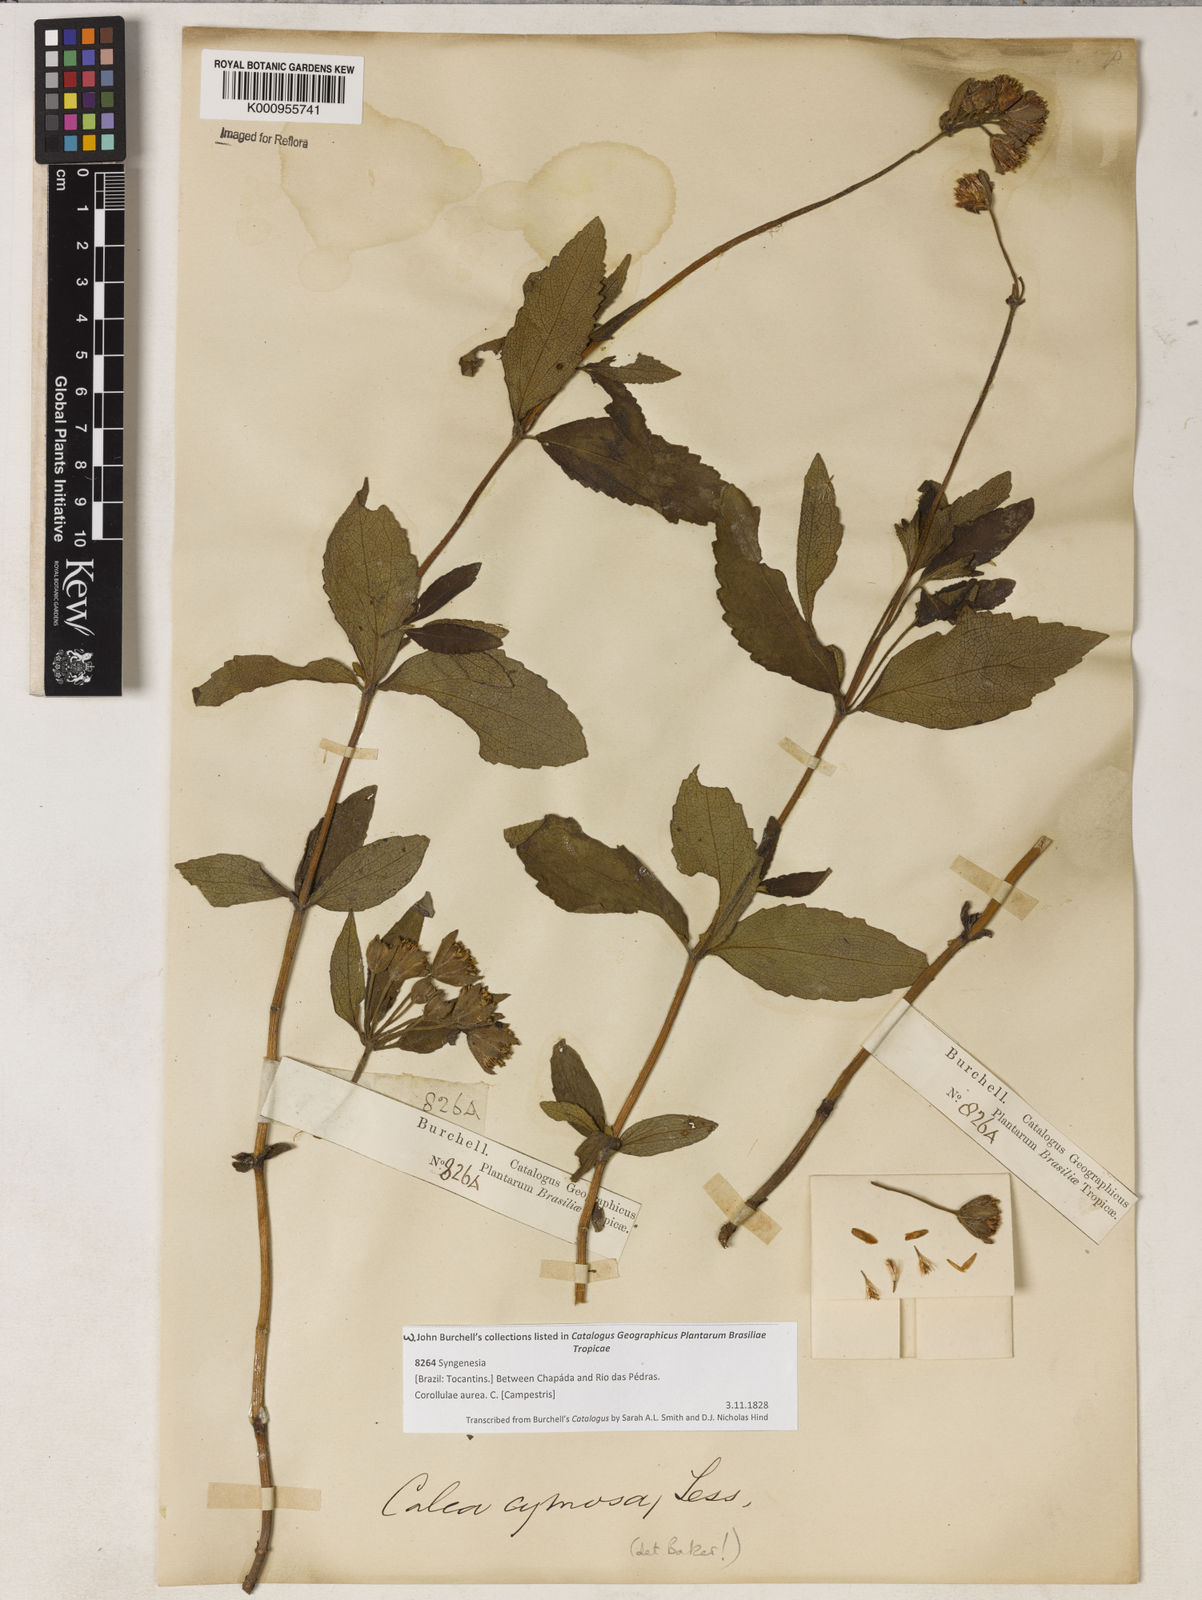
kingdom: Plantae
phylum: Tracheophyta
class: Magnoliopsida
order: Asterales
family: Asteraceae
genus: Calea
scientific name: Calea
